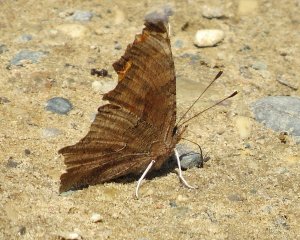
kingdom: Animalia
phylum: Arthropoda
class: Insecta
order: Lepidoptera
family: Nymphalidae
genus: Polygonia
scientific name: Polygonia comma
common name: Eastern Comma
